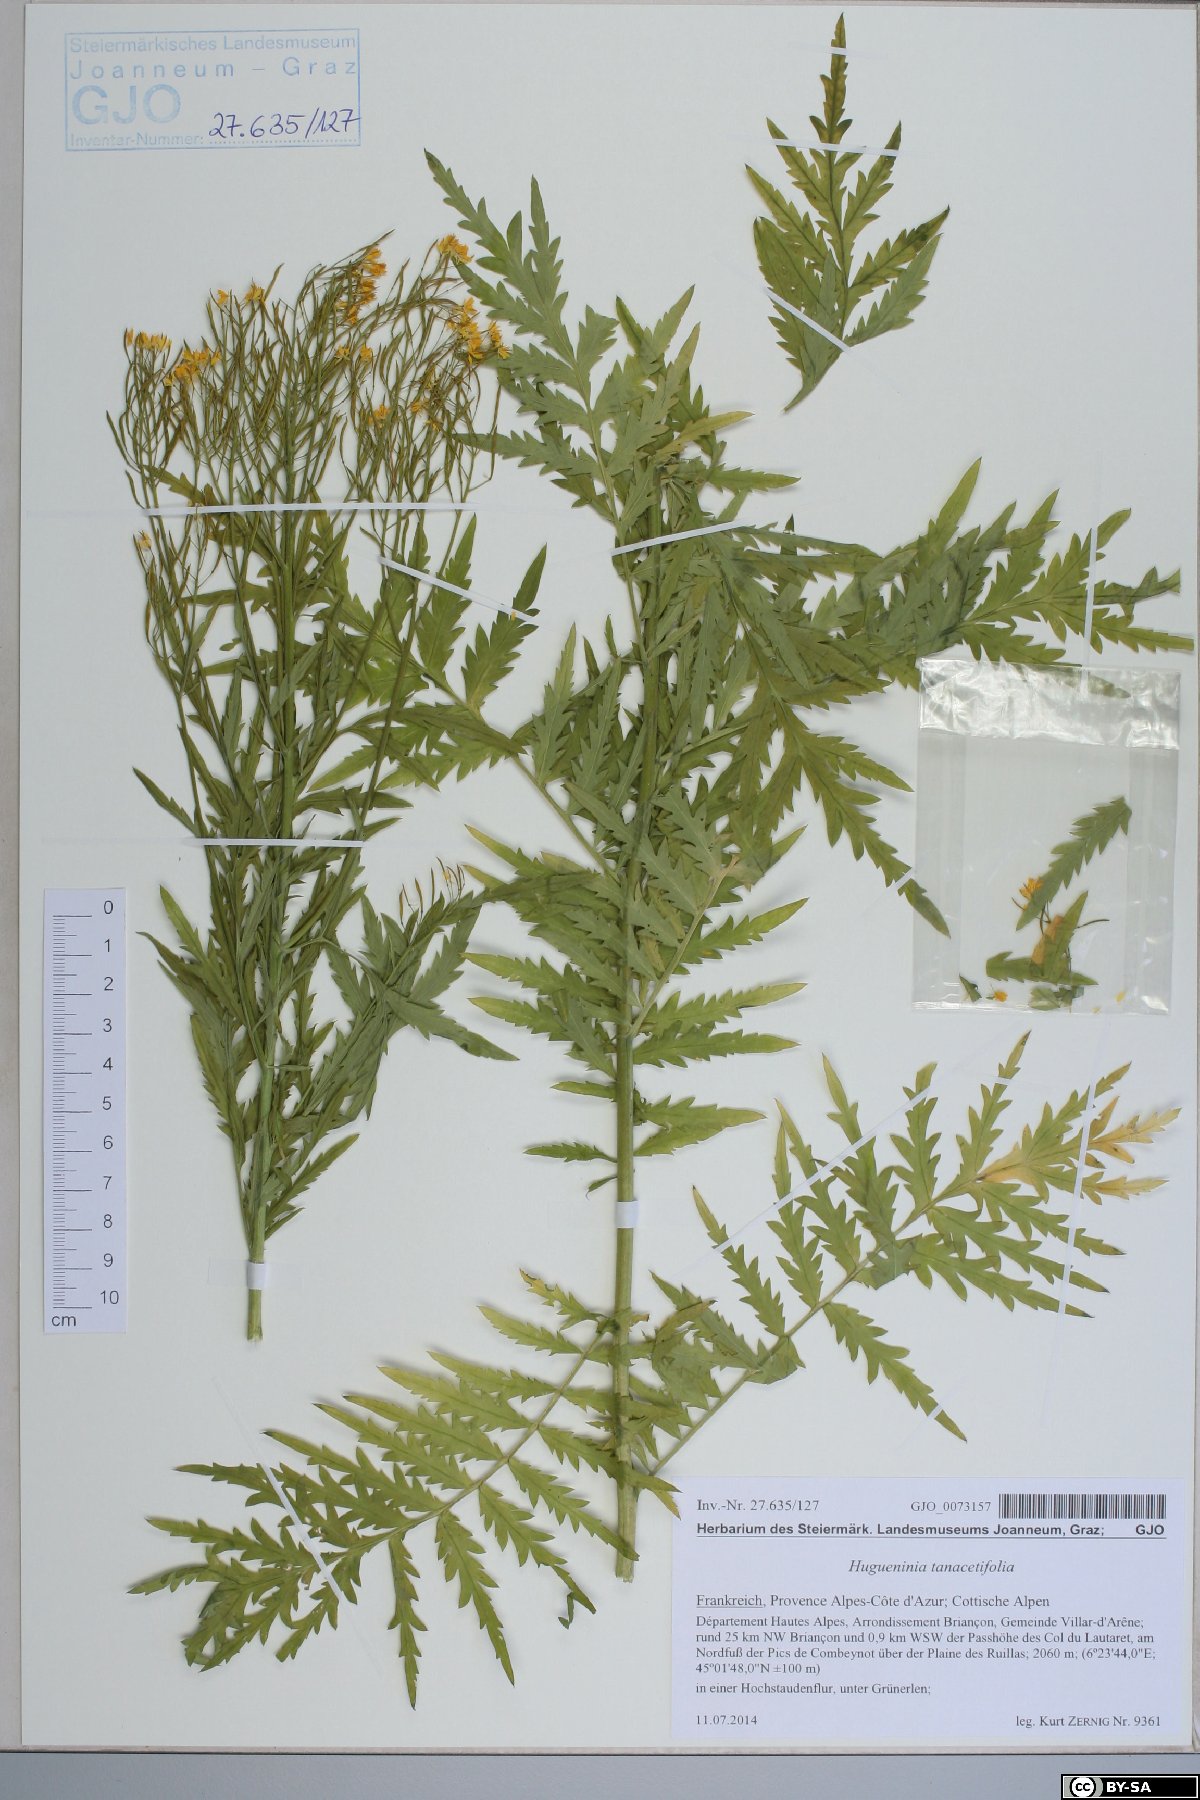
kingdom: Plantae
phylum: Tracheophyta
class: Magnoliopsida
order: Brassicales
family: Brassicaceae
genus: Descurainia
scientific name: Descurainia tanacetifolia
